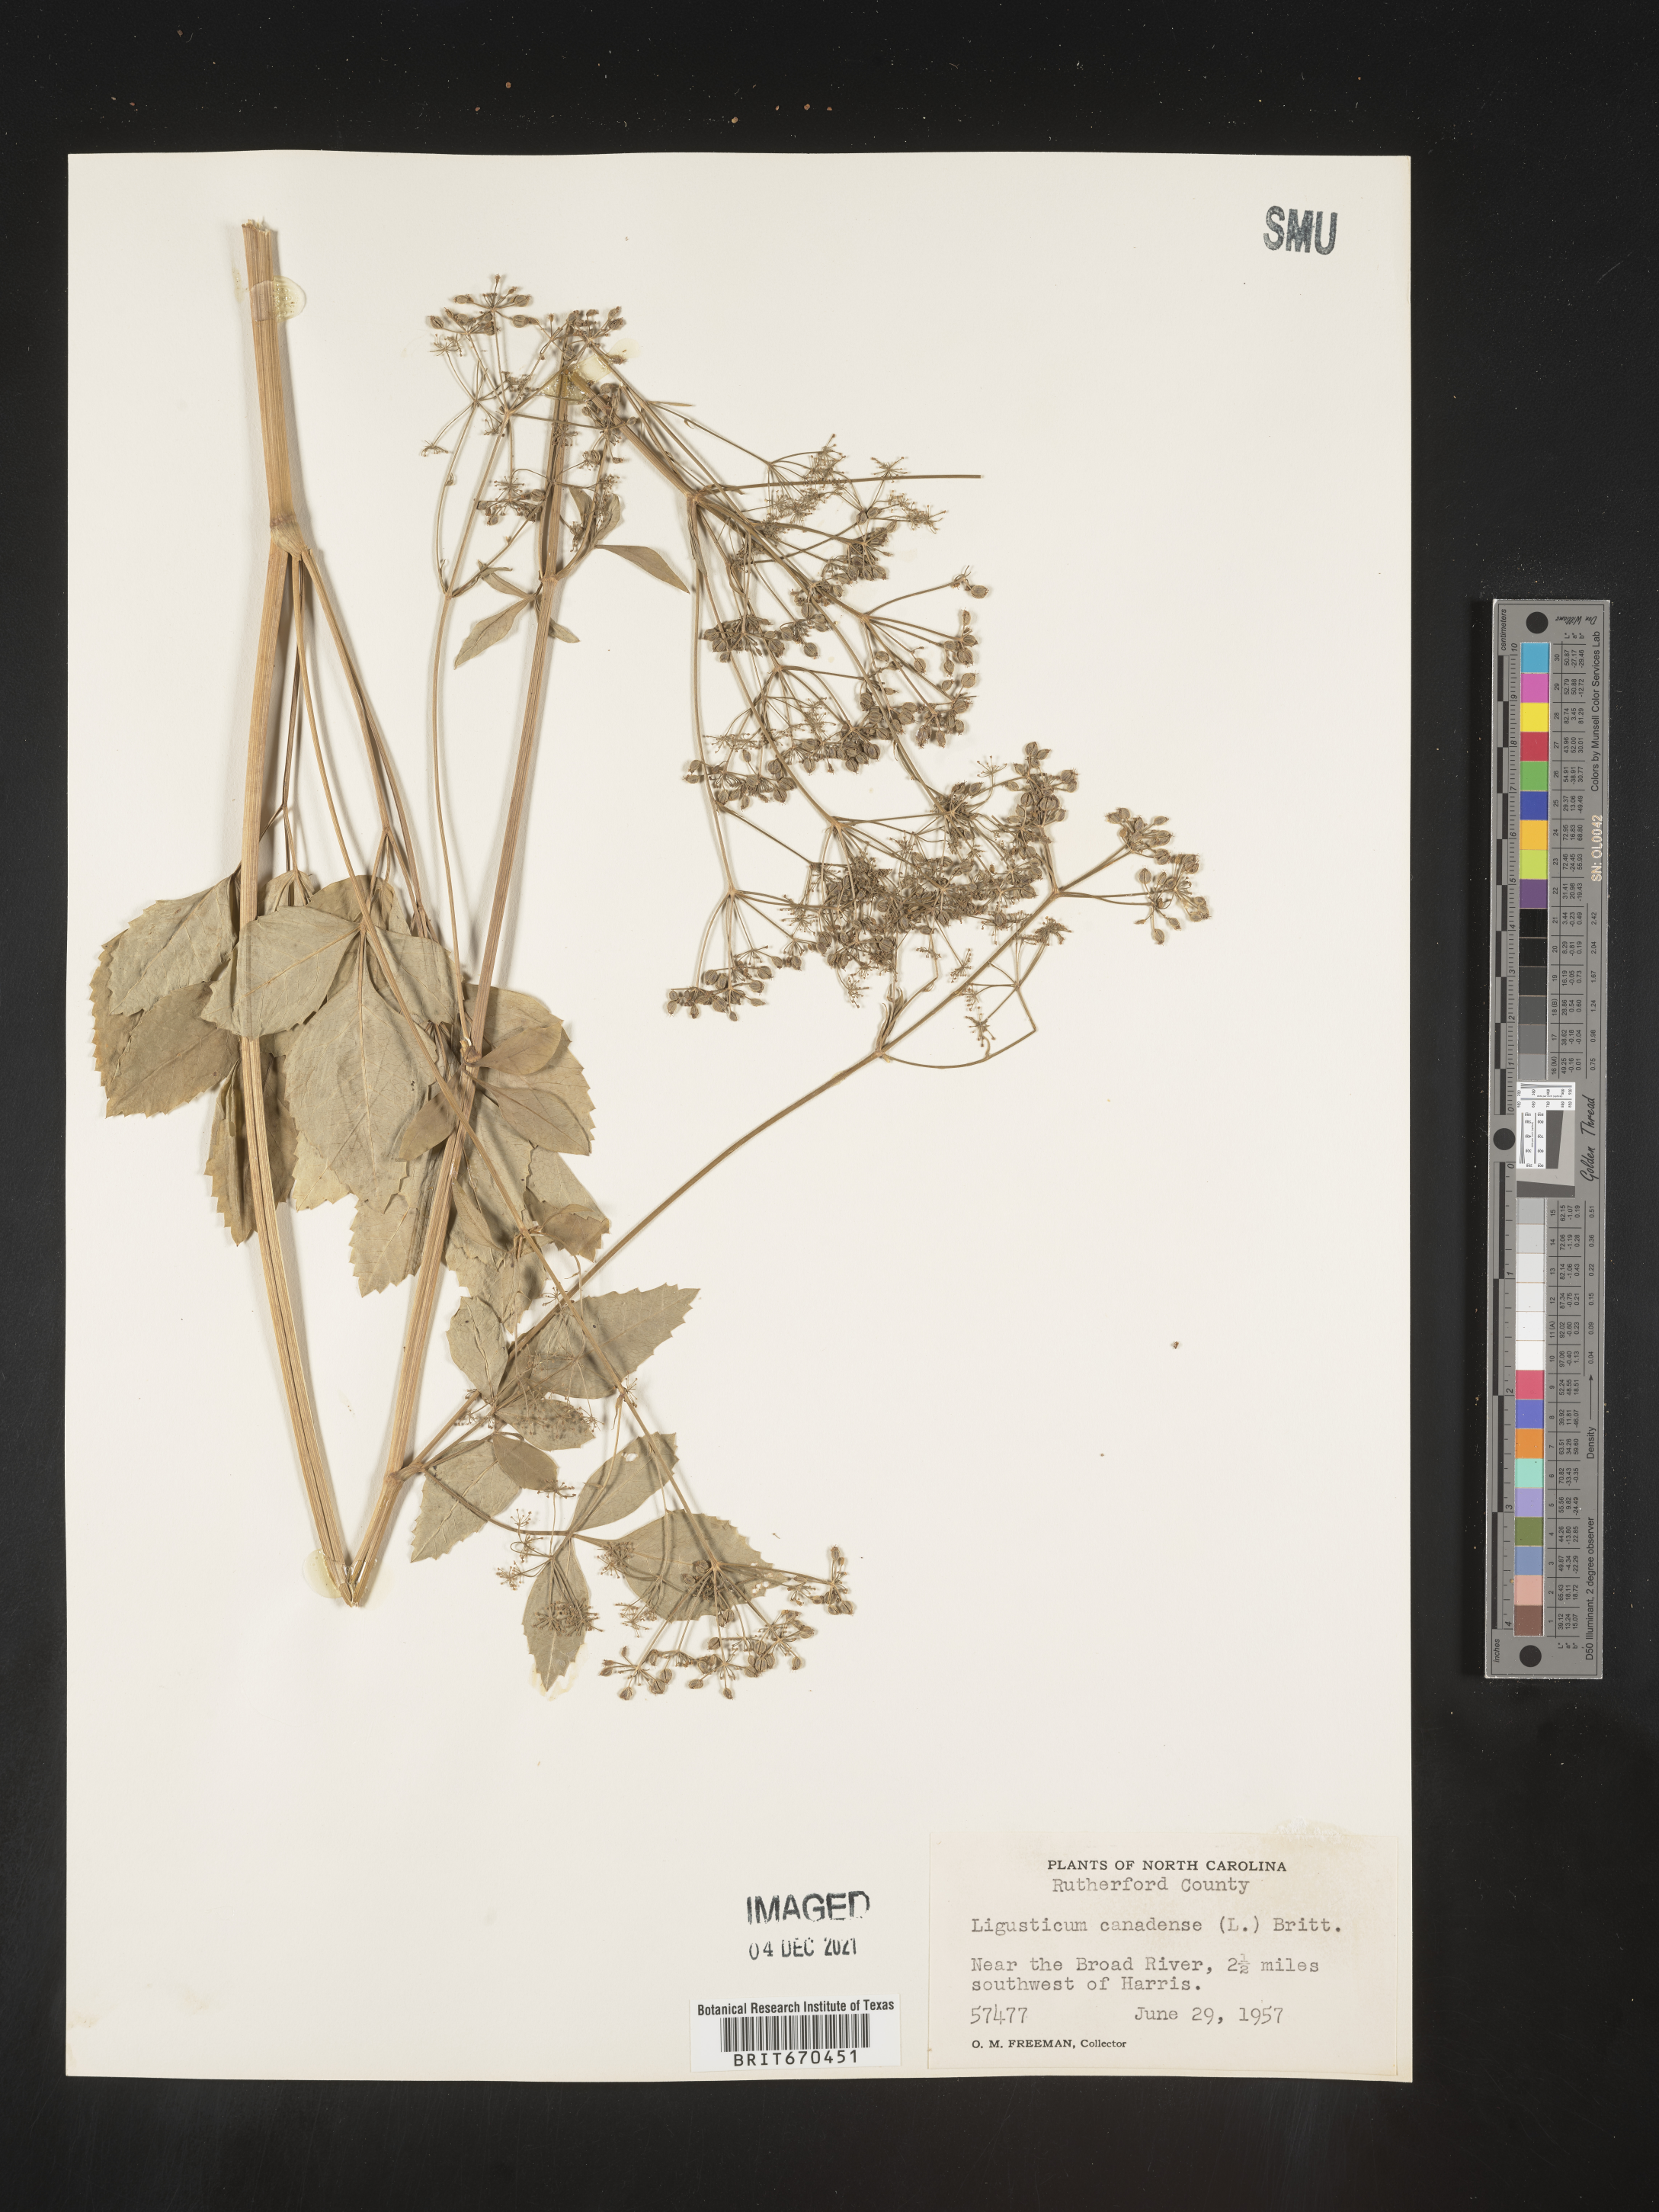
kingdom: Plantae
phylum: Tracheophyta
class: Magnoliopsida
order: Apiales
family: Apiaceae
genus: Ligusticum
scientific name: Ligusticum
